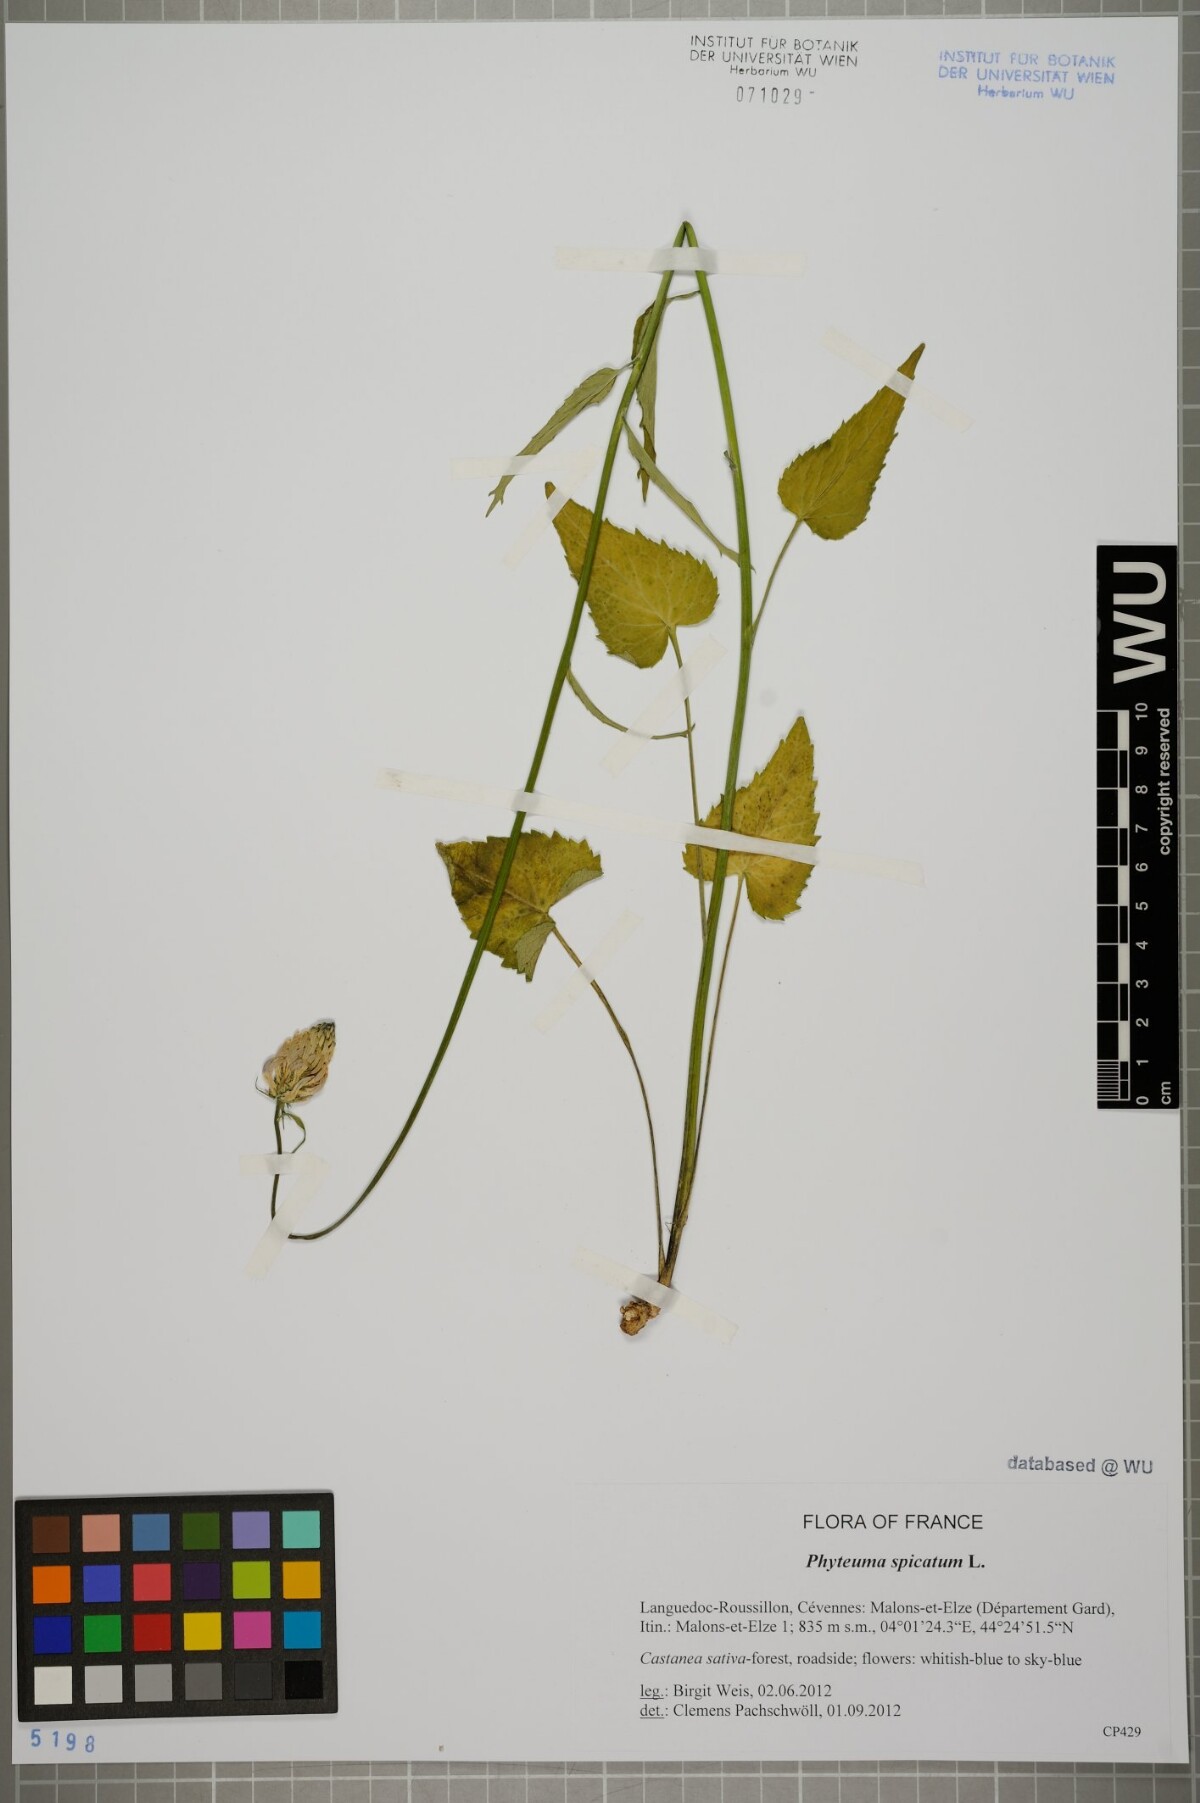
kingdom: Plantae
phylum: Tracheophyta
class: Magnoliopsida
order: Asterales
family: Campanulaceae
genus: Phyteuma
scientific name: Phyteuma spicatum
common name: Spiked rampion
